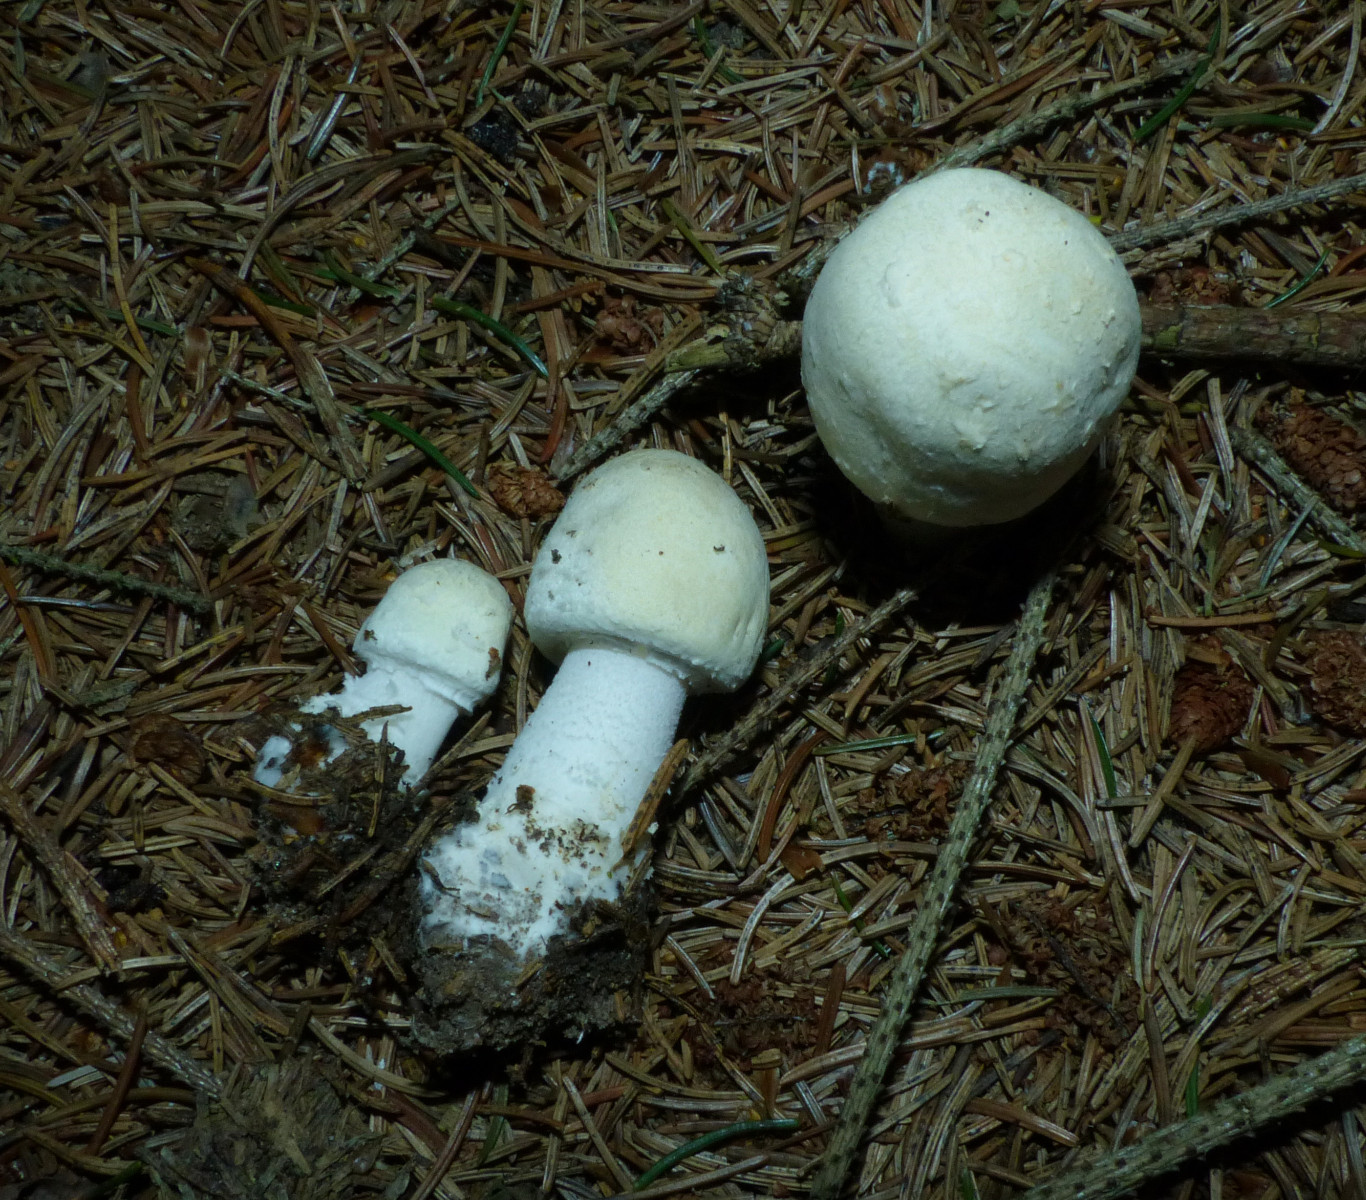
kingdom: Fungi
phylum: Basidiomycota
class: Agaricomycetes
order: Agaricales
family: Agaricaceae
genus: Agaricus
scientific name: Agaricus arvensis
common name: ager-champignon
